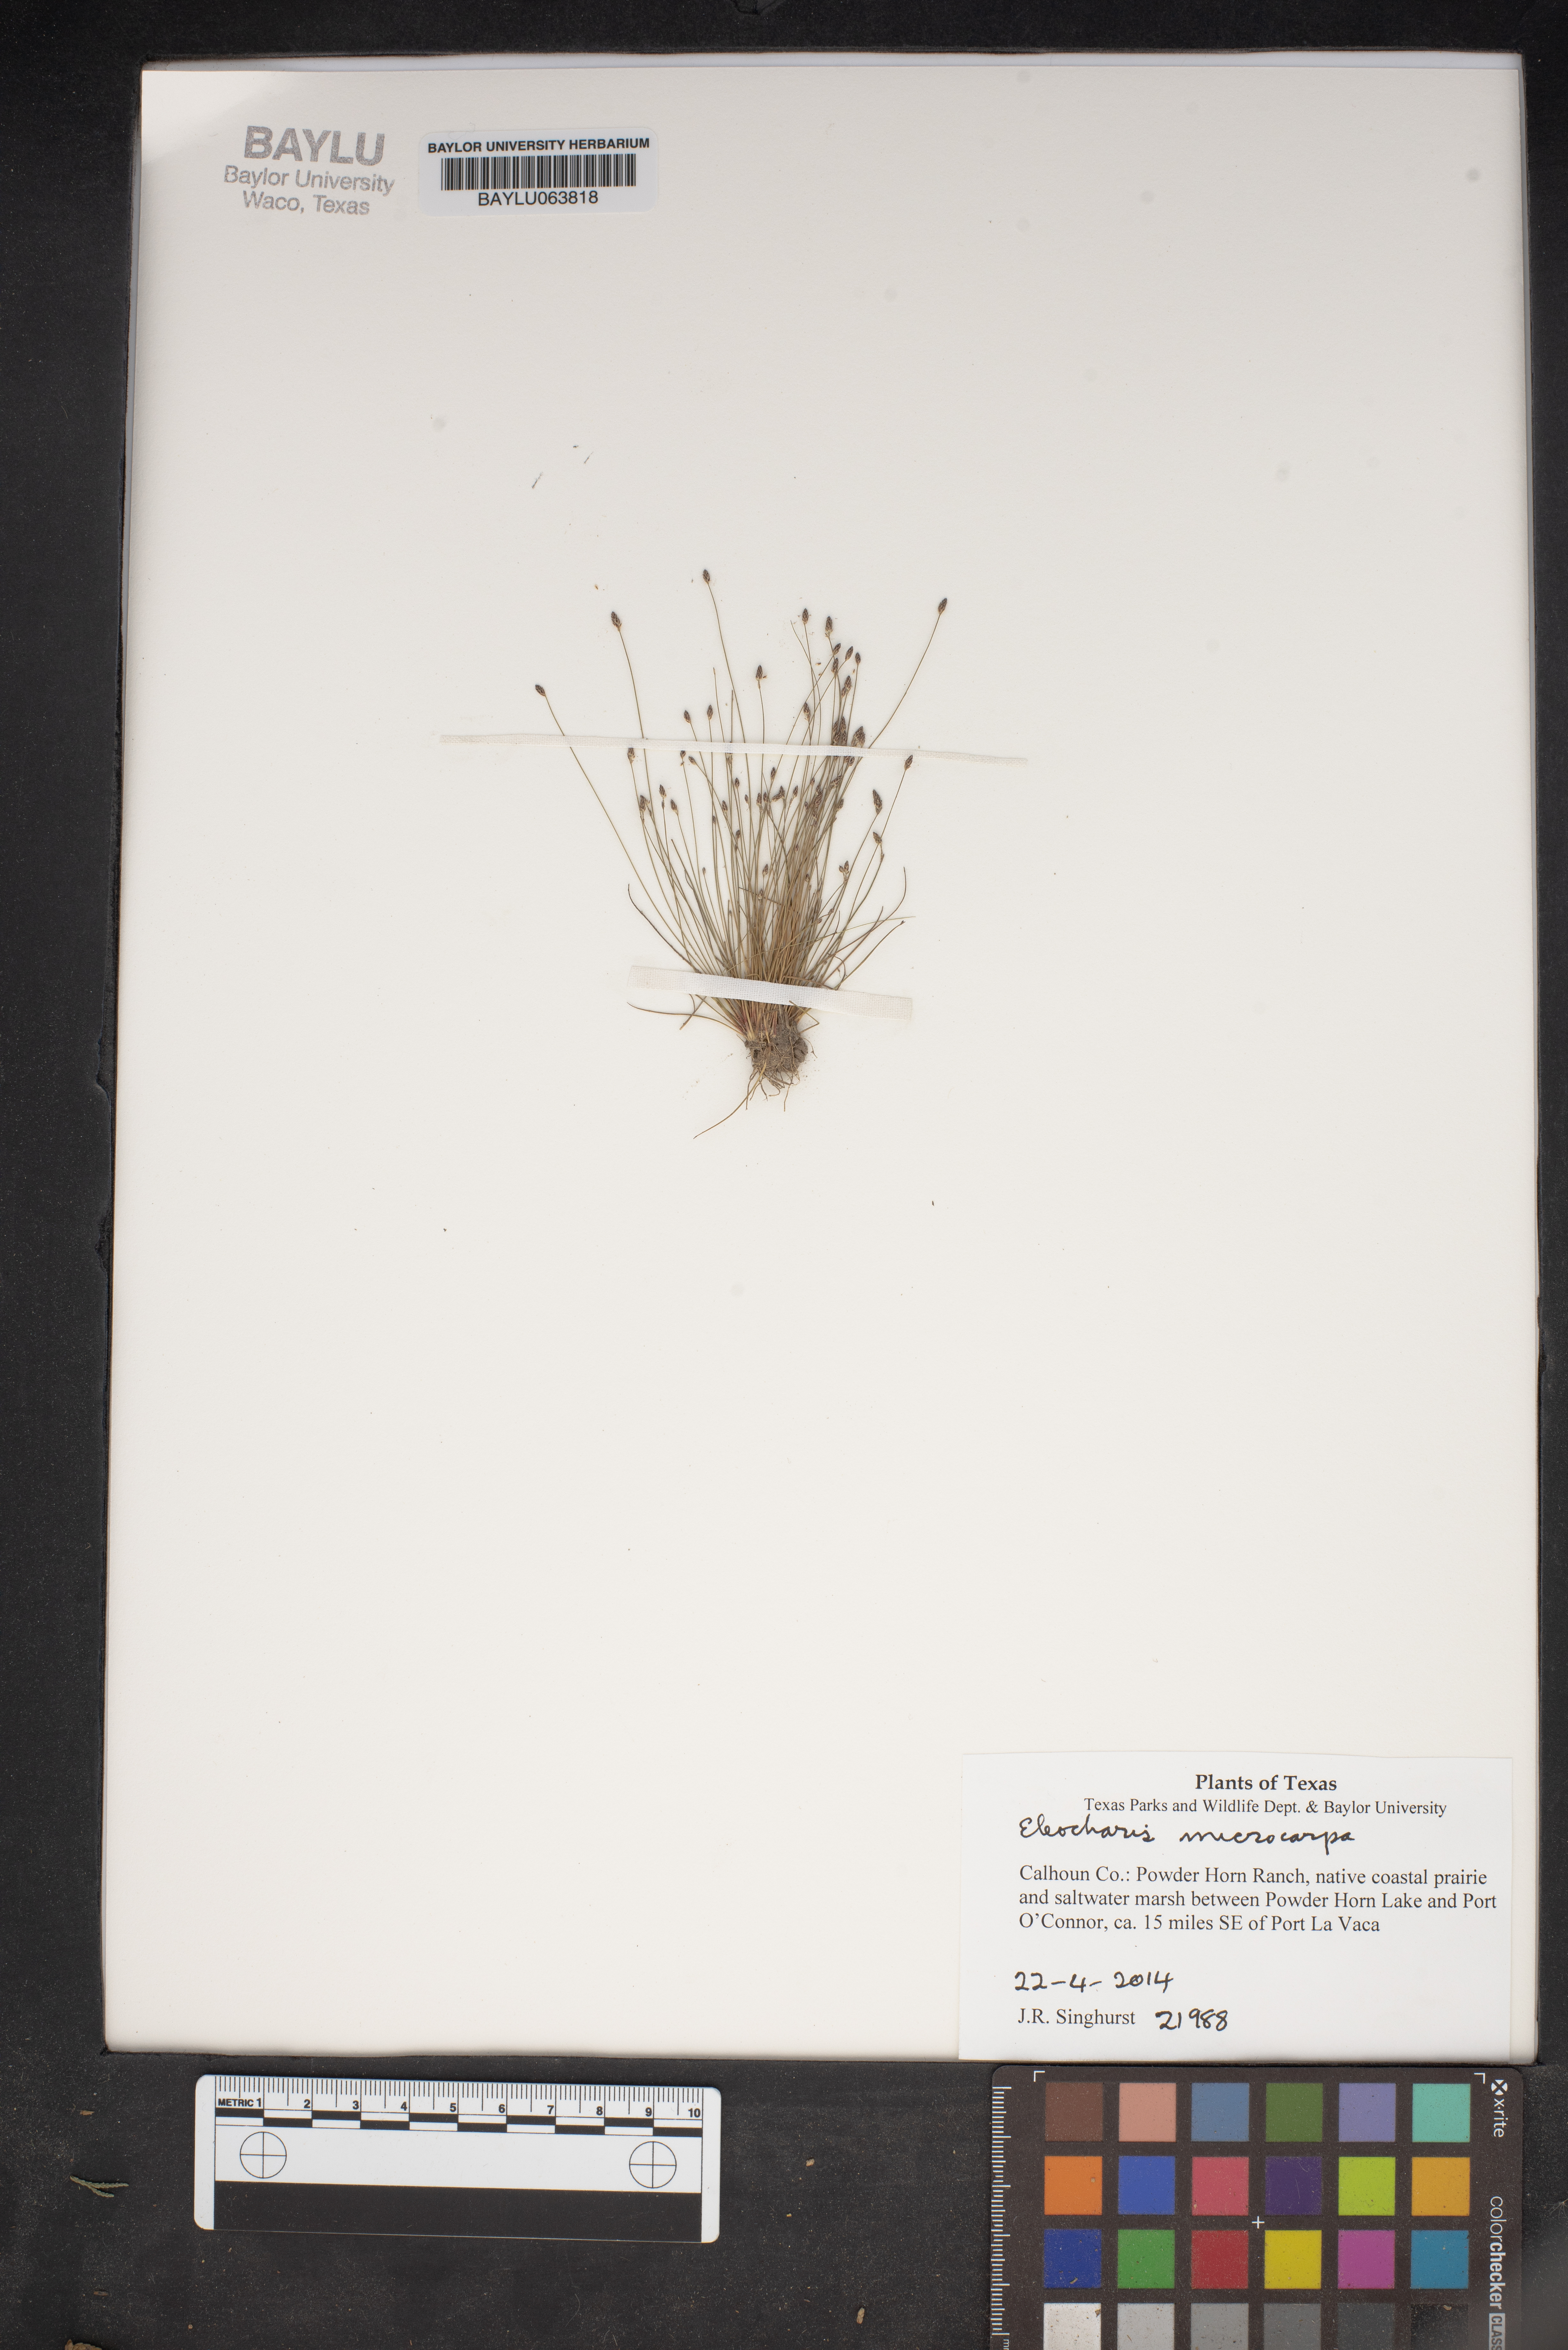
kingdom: Plantae
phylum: Tracheophyta
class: Liliopsida
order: Poales
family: Cyperaceae
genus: Eleocharis
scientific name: Eleocharis microcarpa
